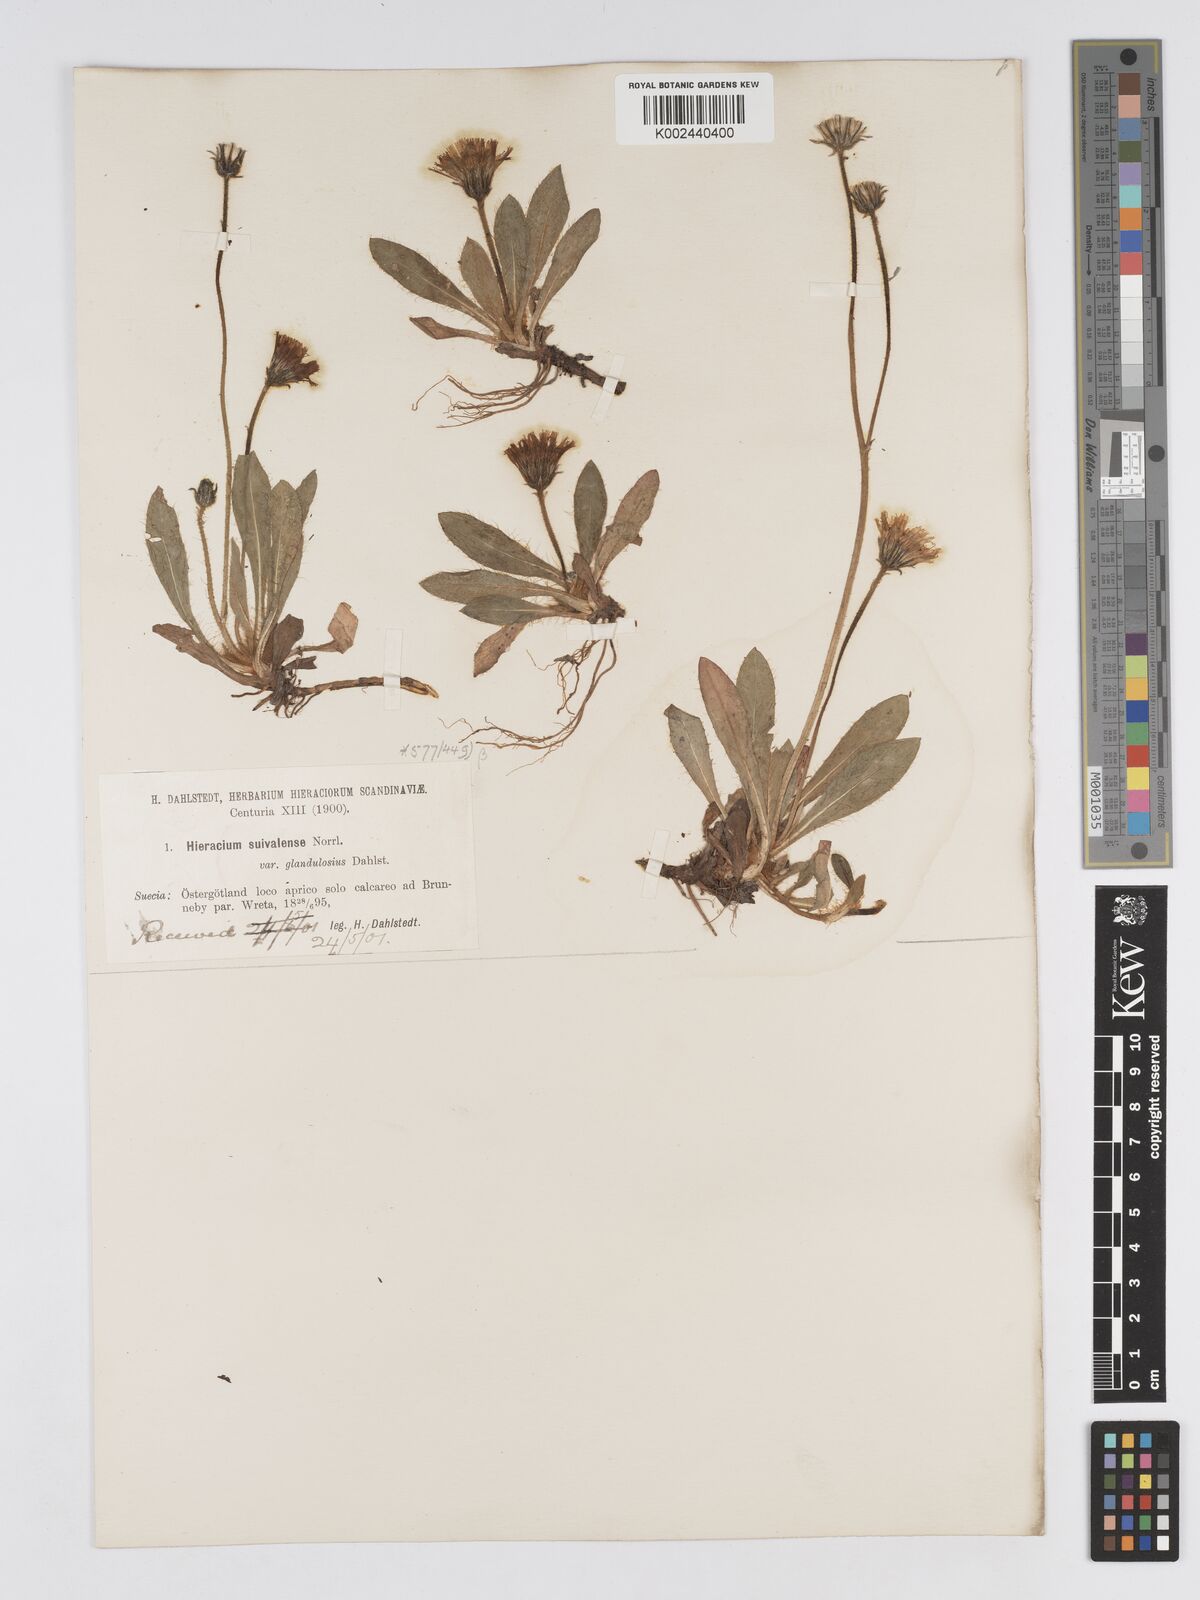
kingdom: Plantae
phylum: Tracheophyta
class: Magnoliopsida
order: Asterales
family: Asteraceae
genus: Pilosella
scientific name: Pilosella officinarum
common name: Mouse-ear hawkweed
